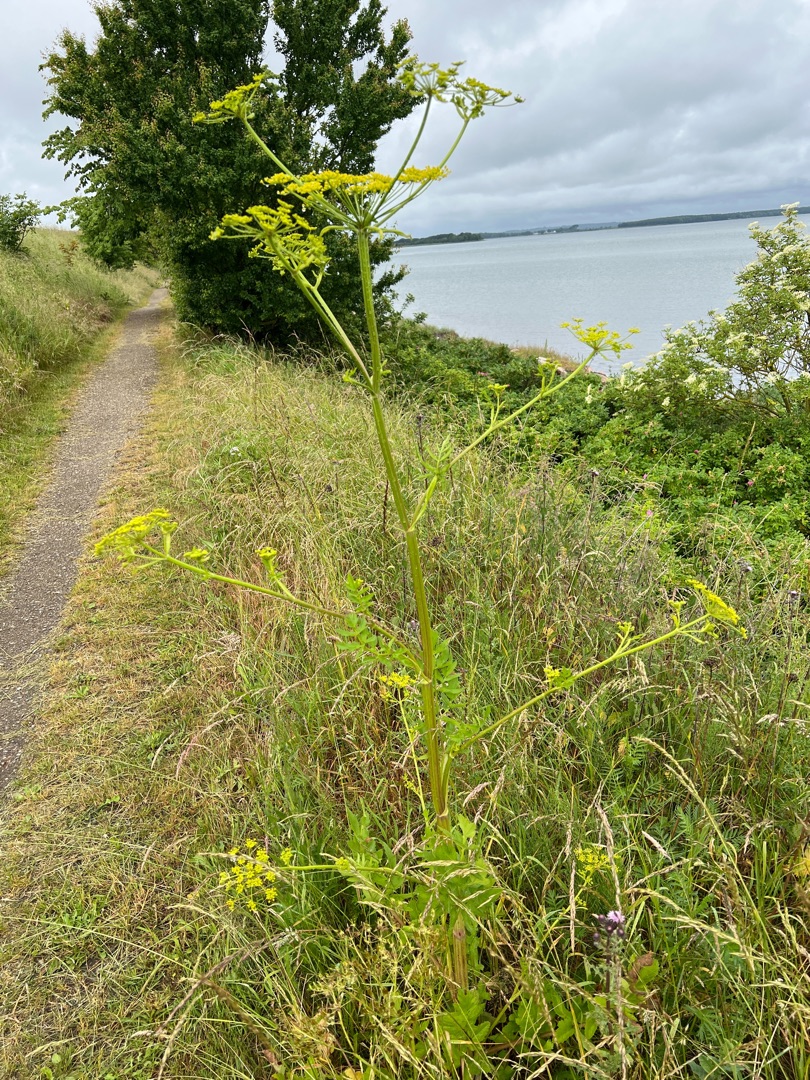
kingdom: Plantae
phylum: Tracheophyta
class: Magnoliopsida
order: Apiales
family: Apiaceae
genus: Pastinaca
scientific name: Pastinaca sativa
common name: Pastinak
